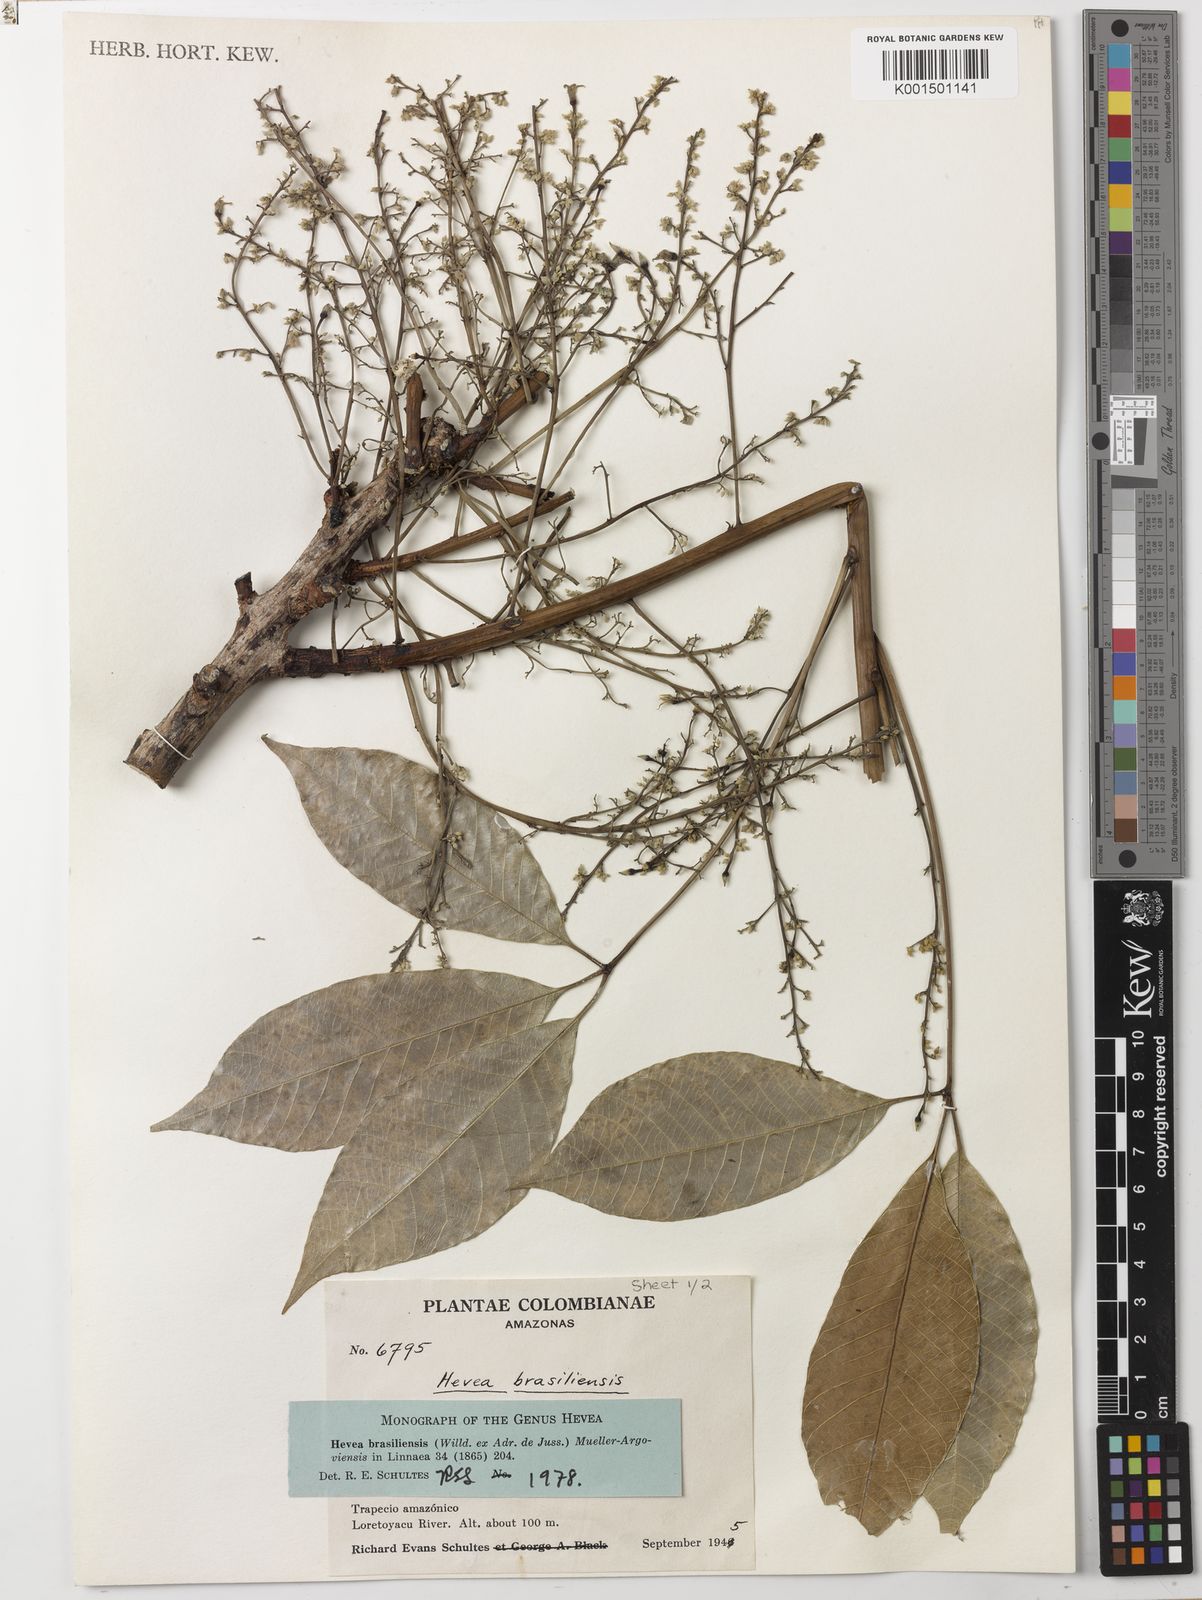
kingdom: Plantae
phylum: Tracheophyta
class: Magnoliopsida
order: Malpighiales
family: Euphorbiaceae
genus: Hevea
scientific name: Hevea brasiliensis
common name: Natural rubber
